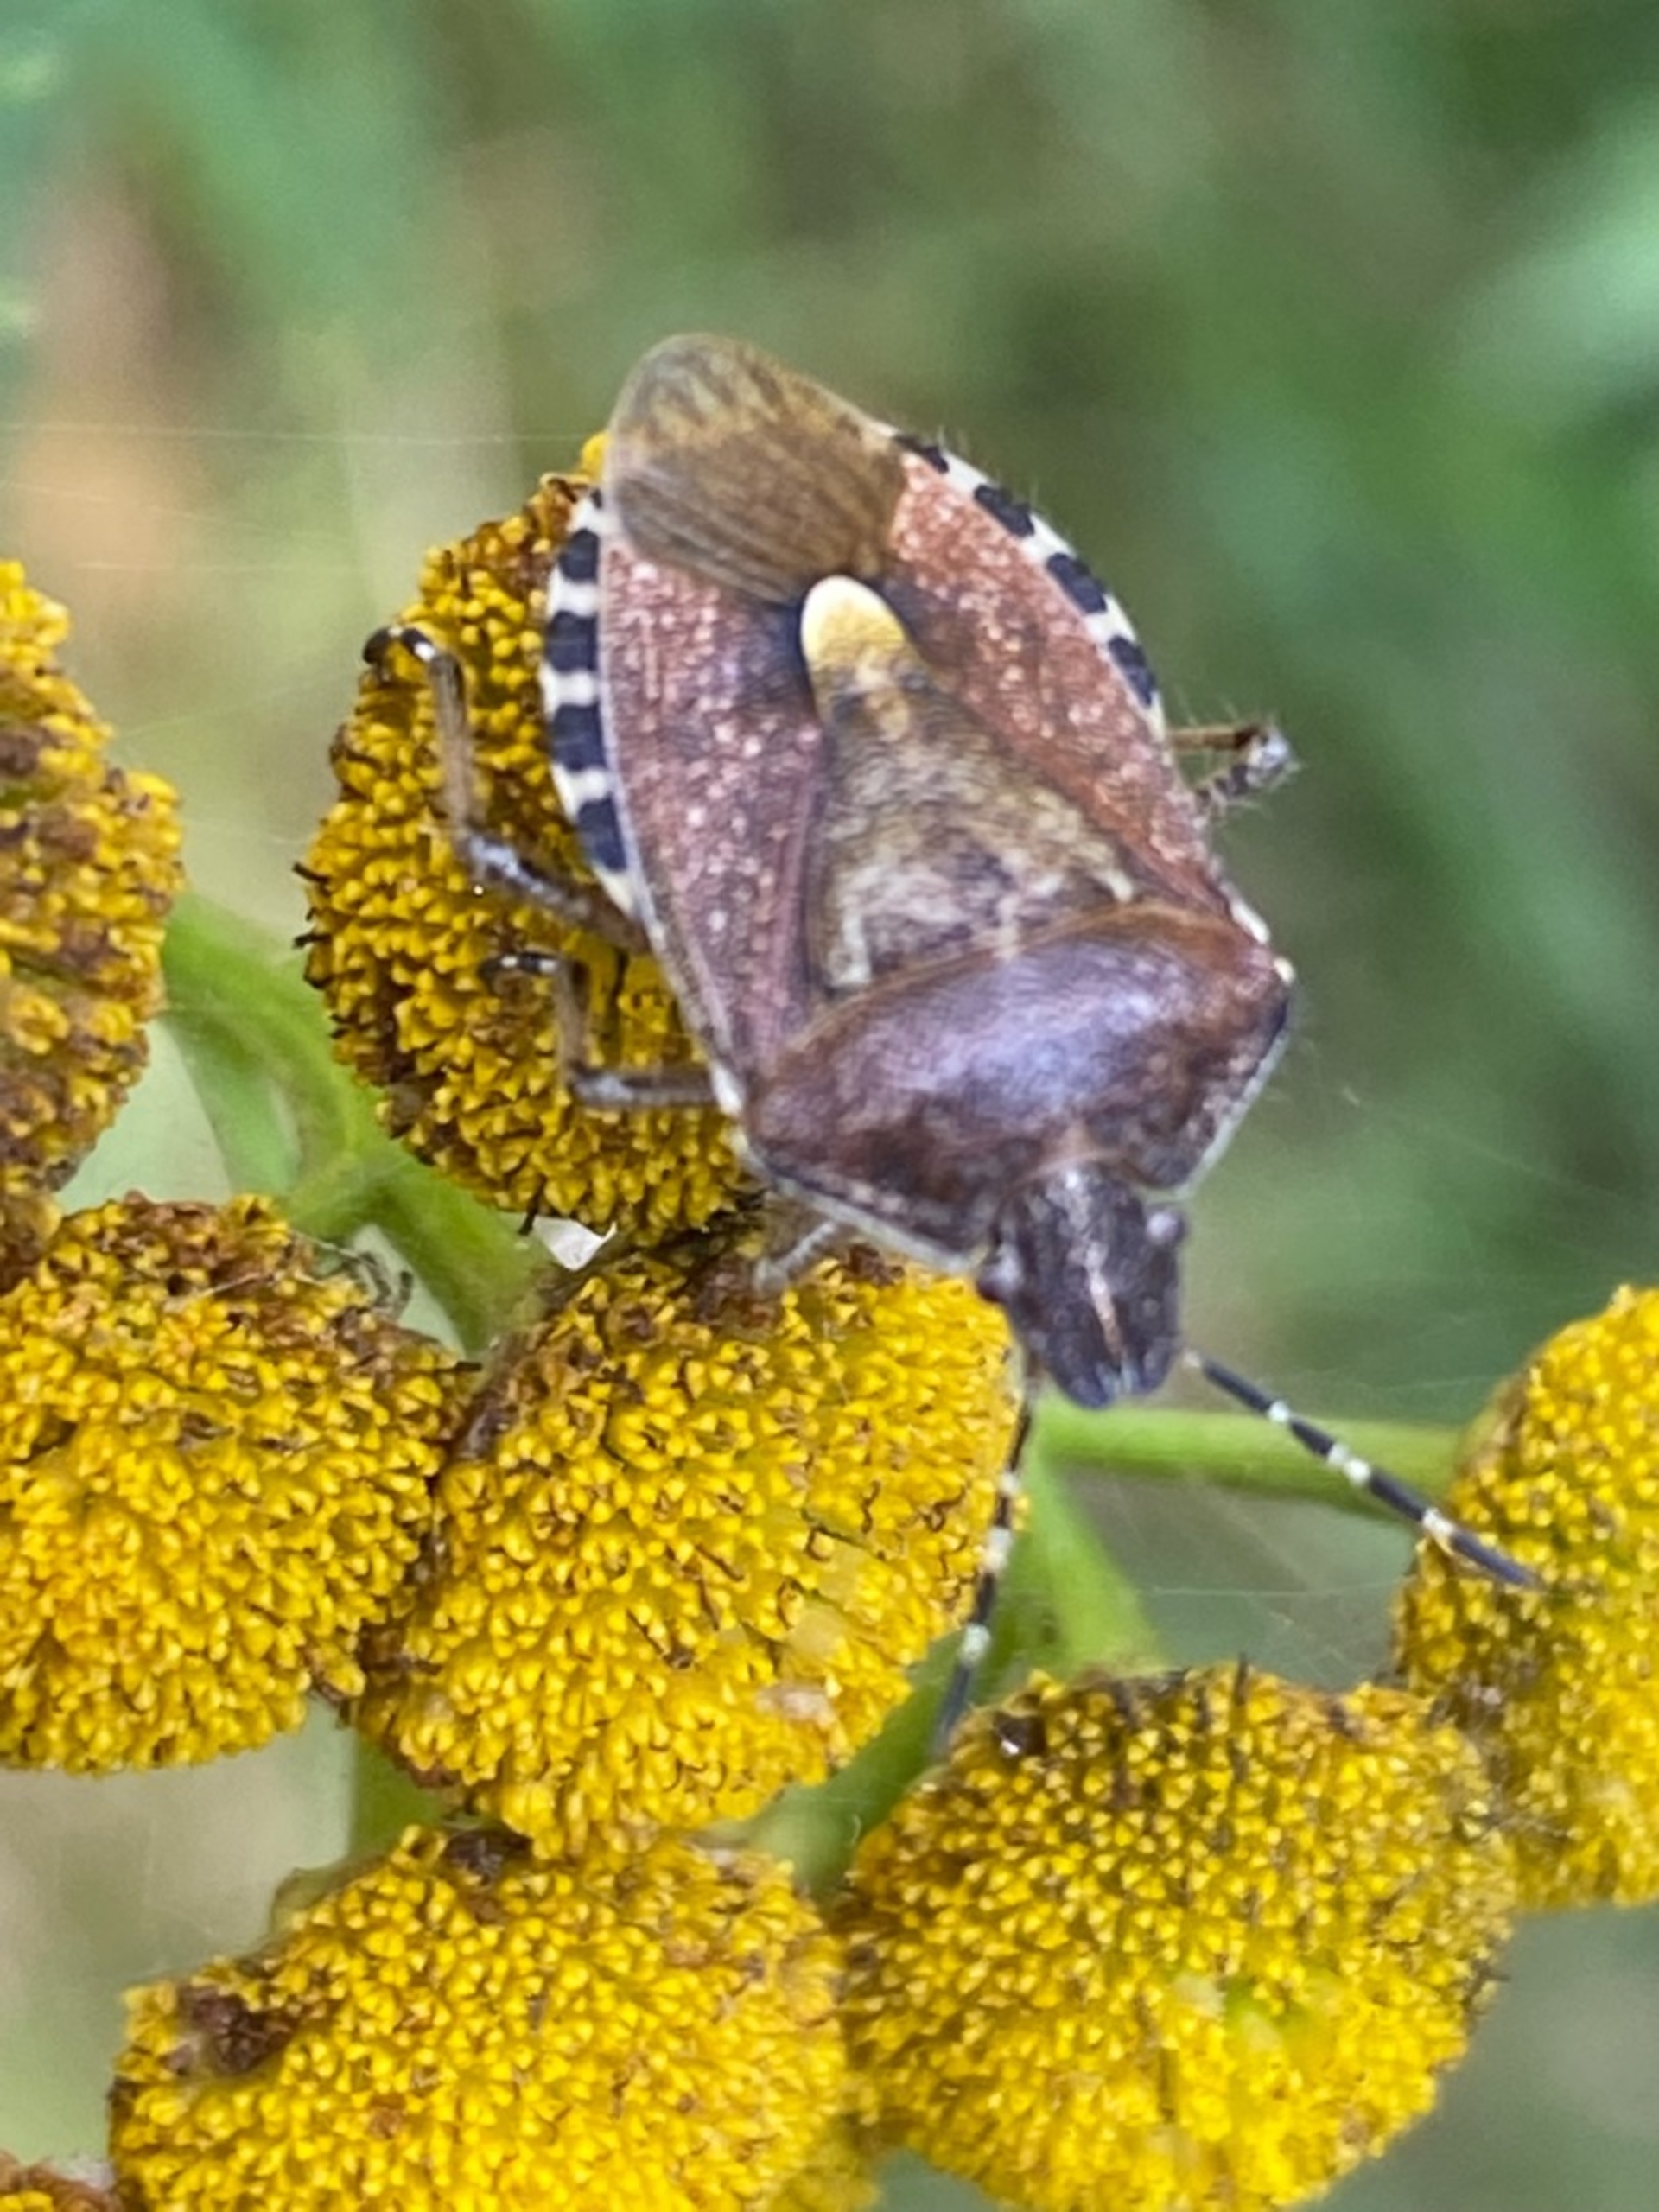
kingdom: Animalia
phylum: Arthropoda
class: Insecta
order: Hemiptera
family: Pentatomidae
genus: Dolycoris
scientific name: Dolycoris baccarum
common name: Almindelig bærtæge
